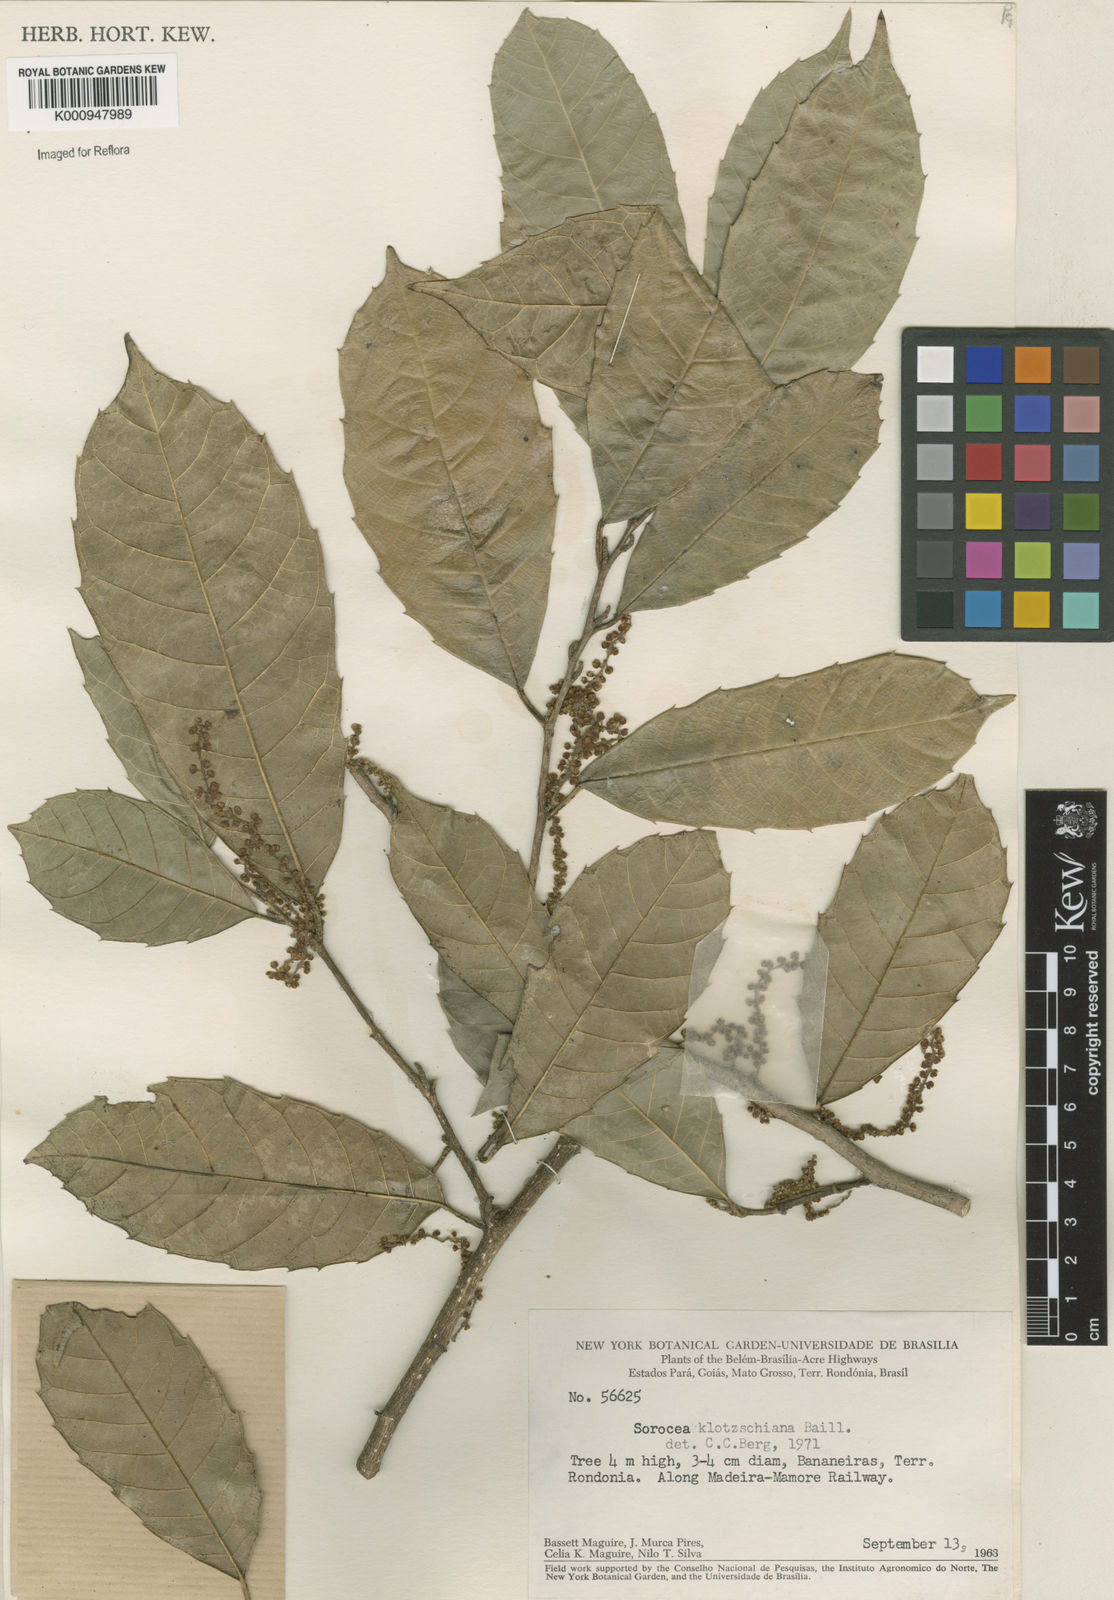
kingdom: Plantae
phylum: Tracheophyta
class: Magnoliopsida
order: Rosales
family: Moraceae
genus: Sorocea
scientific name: Sorocea guilleminiana
